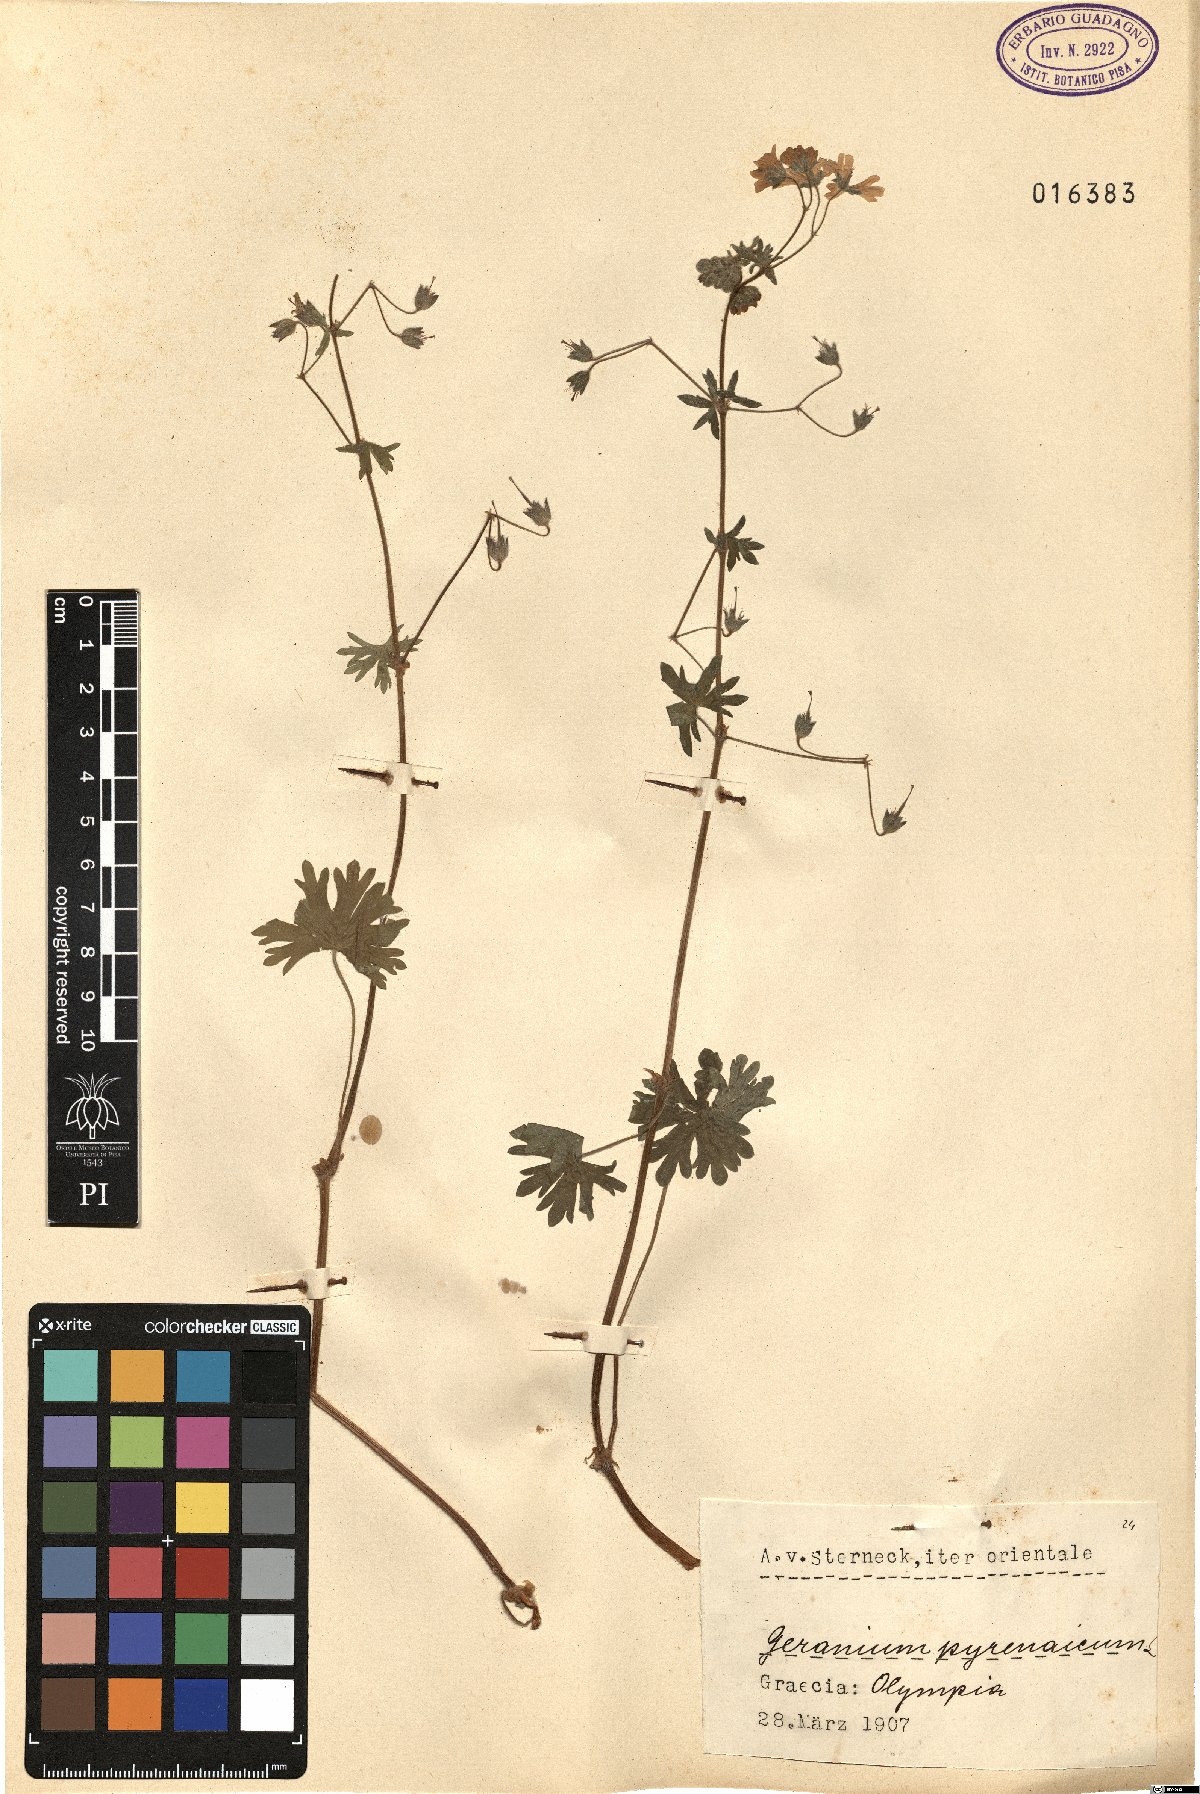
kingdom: Plantae
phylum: Tracheophyta
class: Magnoliopsida
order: Geraniales
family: Geraniaceae
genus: Geranium
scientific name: Geranium pyrenaicum
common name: Hedgerow crane's-bill
